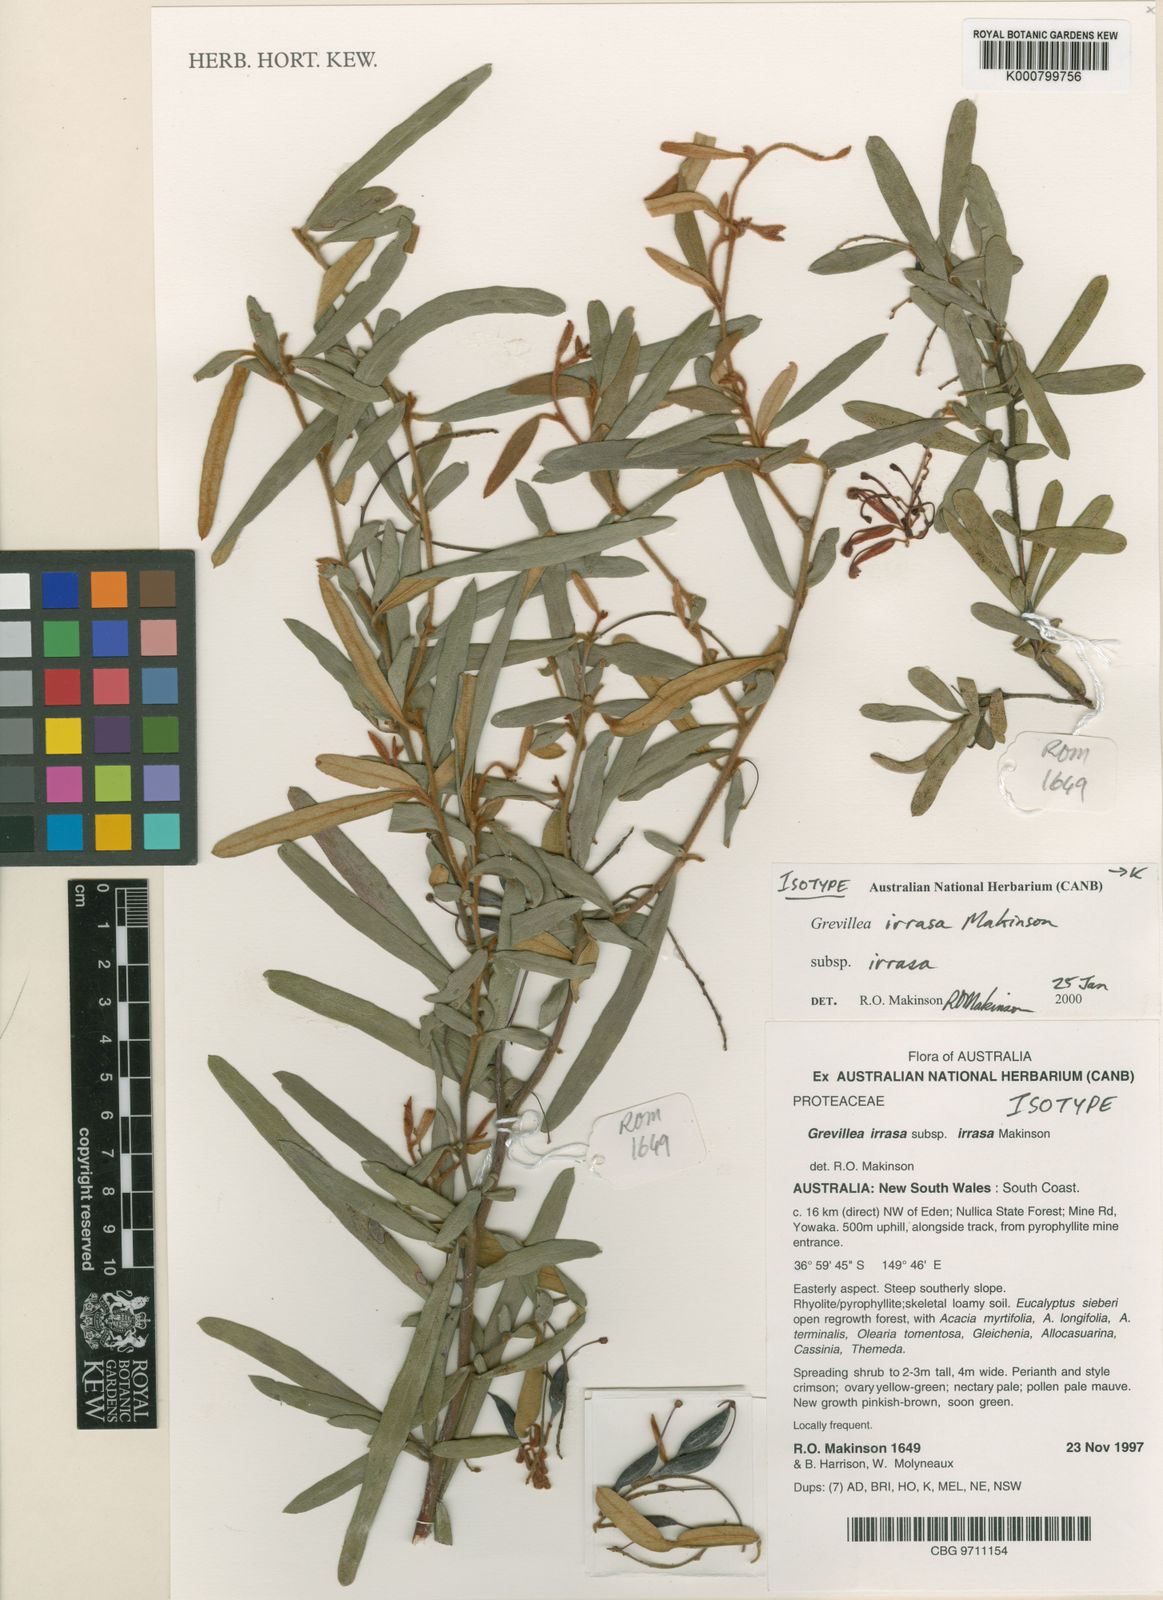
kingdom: Plantae
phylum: Tracheophyta
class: Magnoliopsida
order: Proteales
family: Proteaceae
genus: Grevillea
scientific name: Grevillea irrasa
